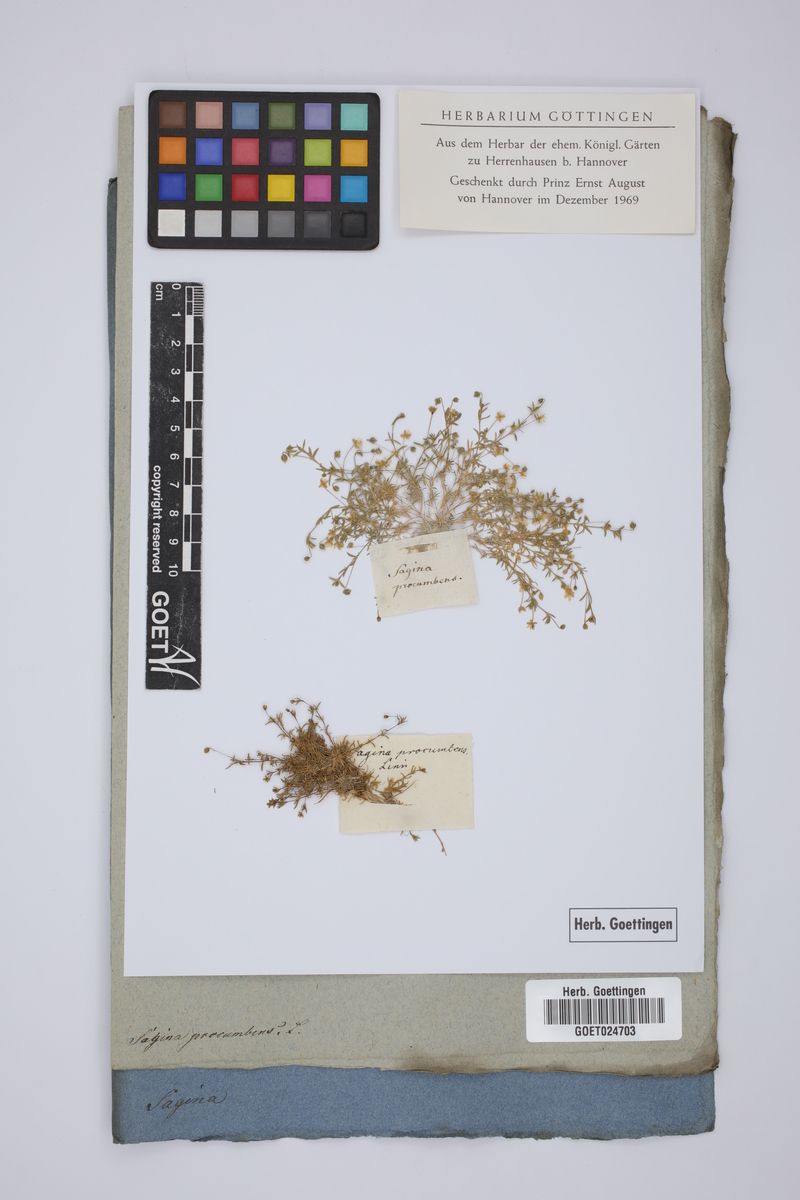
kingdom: Plantae
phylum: Tracheophyta
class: Magnoliopsida
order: Caryophyllales
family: Caryophyllaceae
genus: Sagina
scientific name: Sagina procumbens
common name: Procumbent pearlwort
